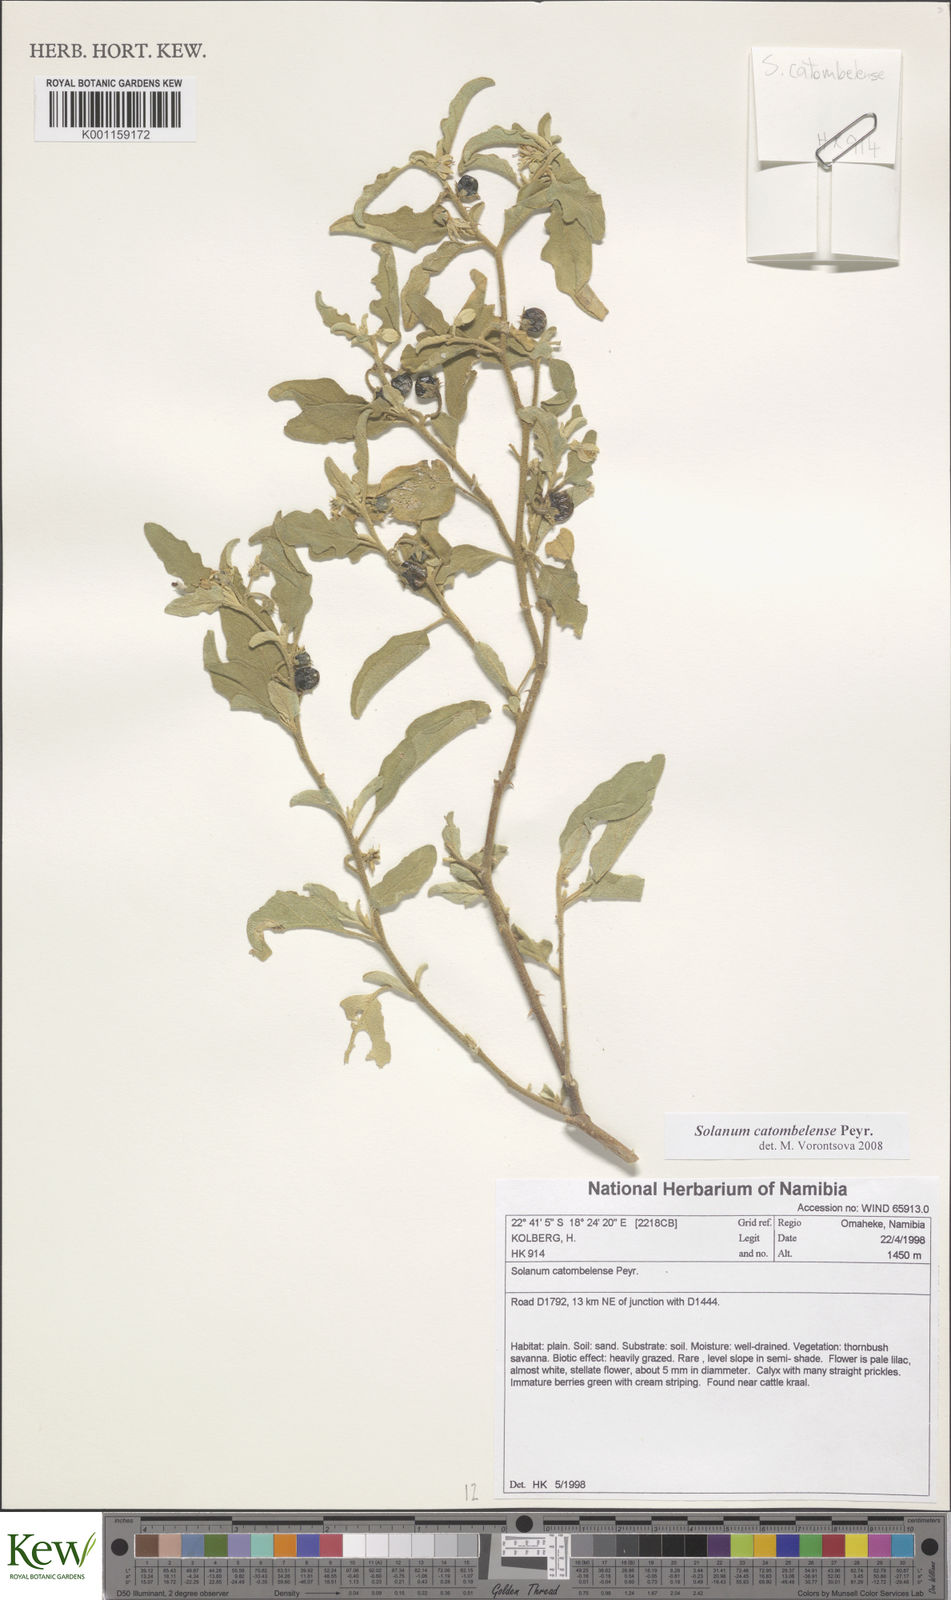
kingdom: Plantae
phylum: Tracheophyta
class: Magnoliopsida
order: Solanales
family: Solanaceae
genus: Solanum
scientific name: Solanum catombelense
